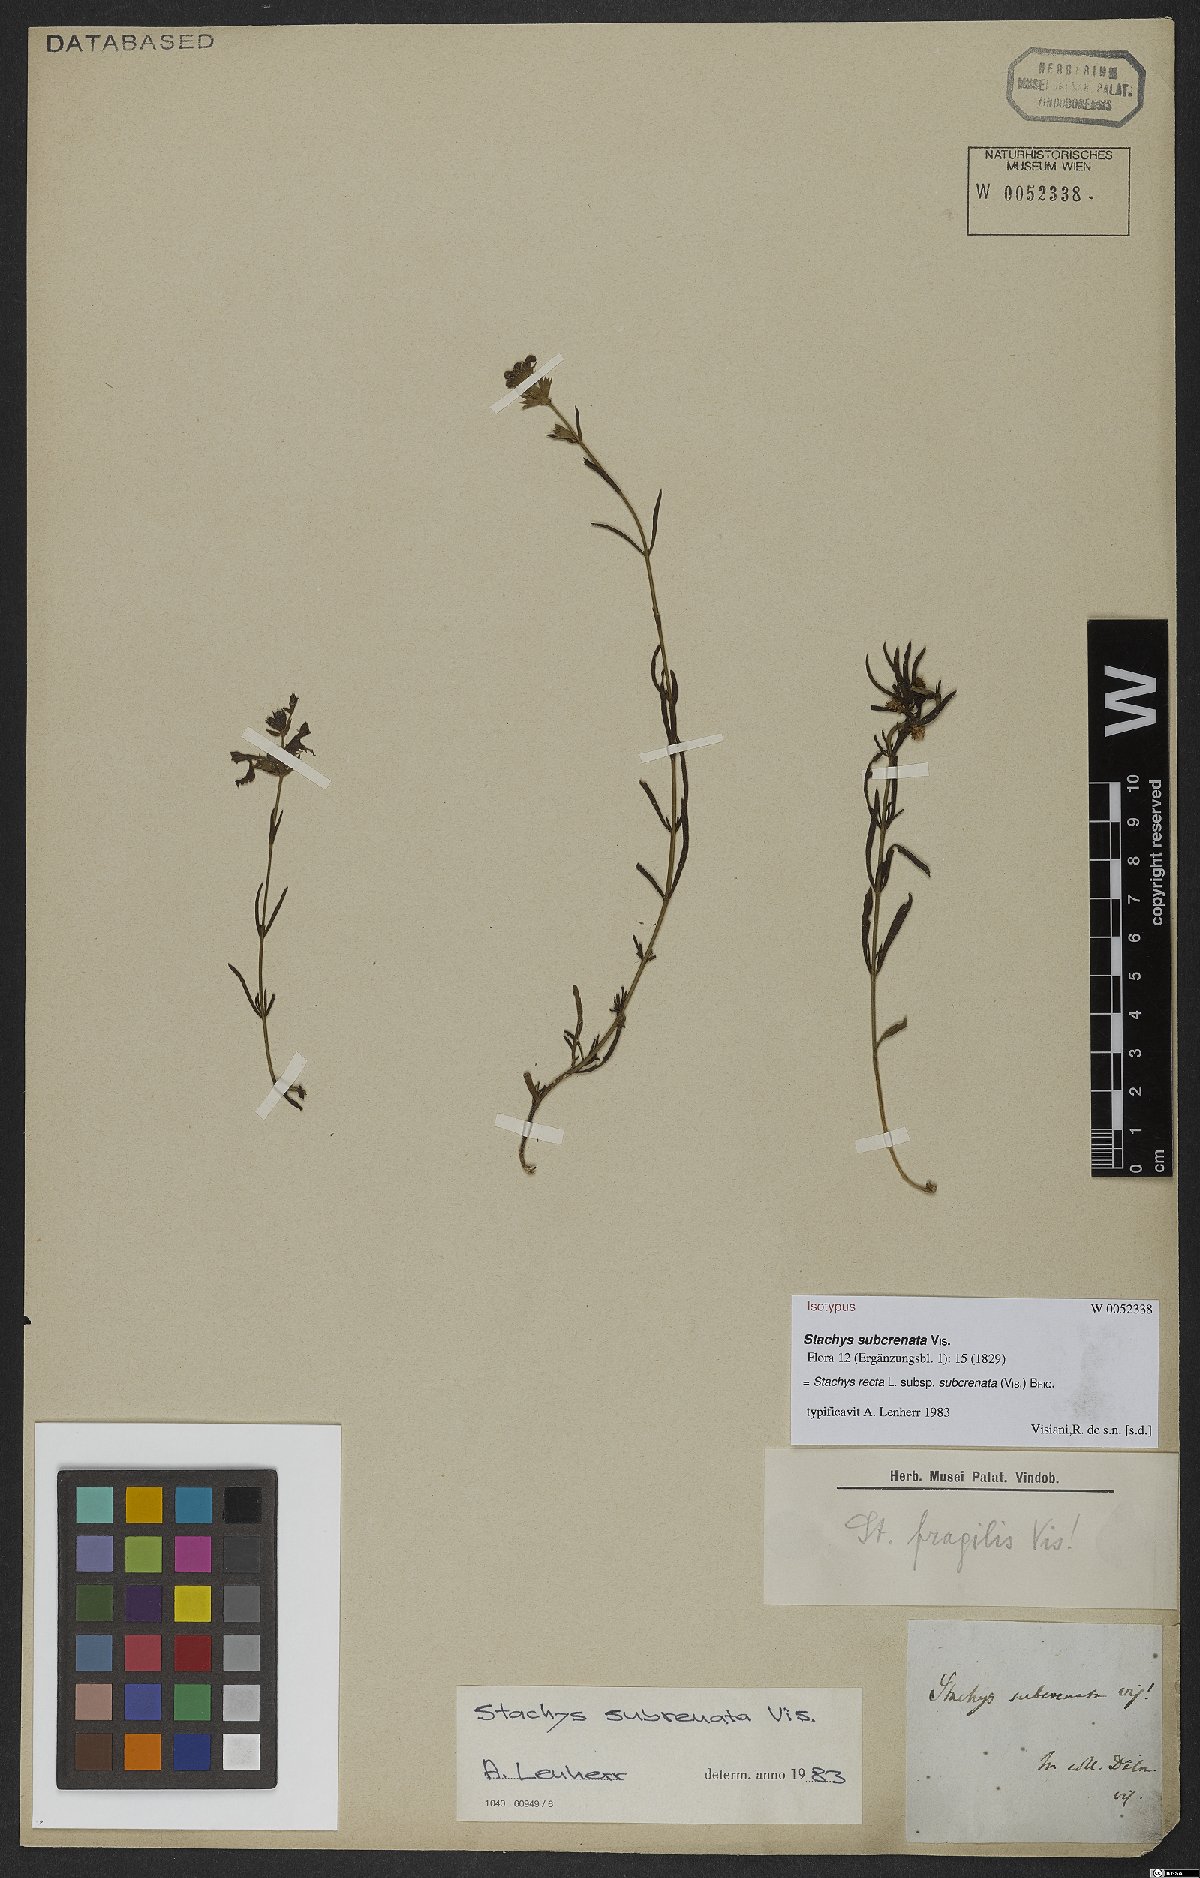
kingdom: Plantae
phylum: Tracheophyta
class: Magnoliopsida
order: Lamiales
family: Lamiaceae
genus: Stachys
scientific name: Stachys recta
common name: Perennial yellow-woundwort
